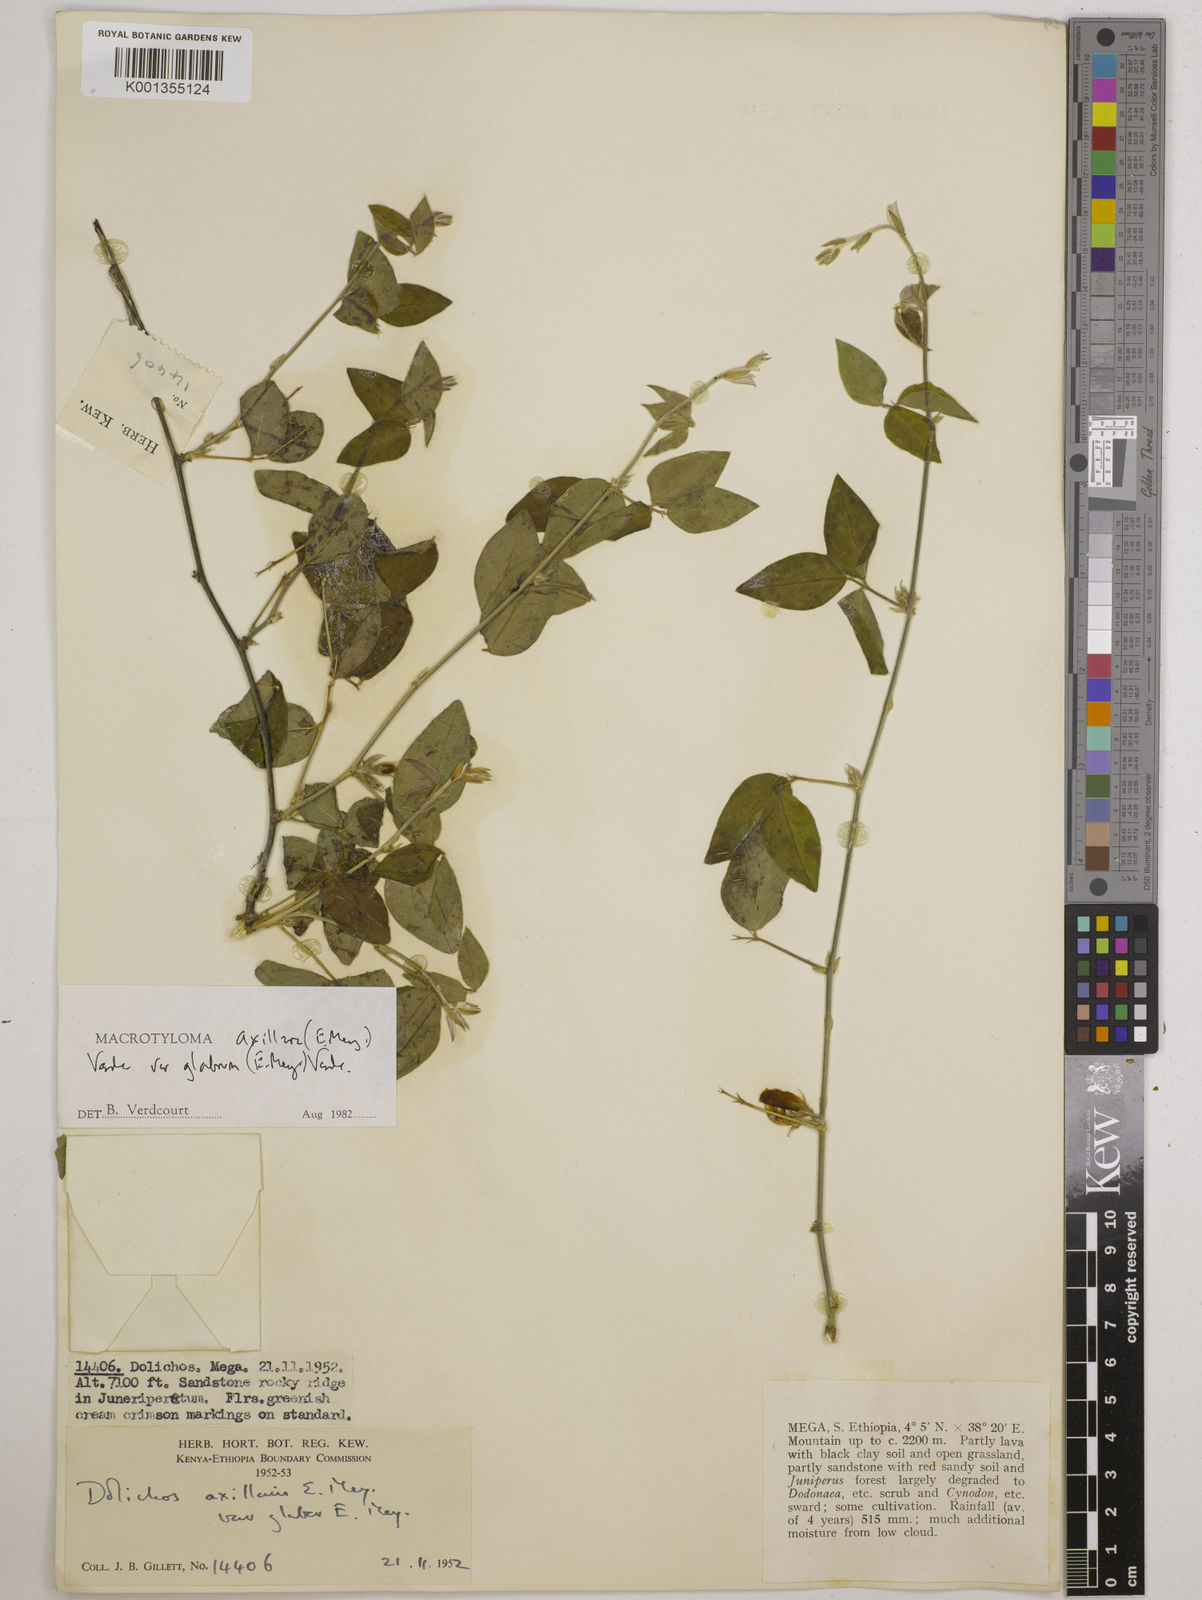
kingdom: Plantae
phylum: Tracheophyta
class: Magnoliopsida
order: Fabales
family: Fabaceae
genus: Macrotyloma
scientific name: Macrotyloma
